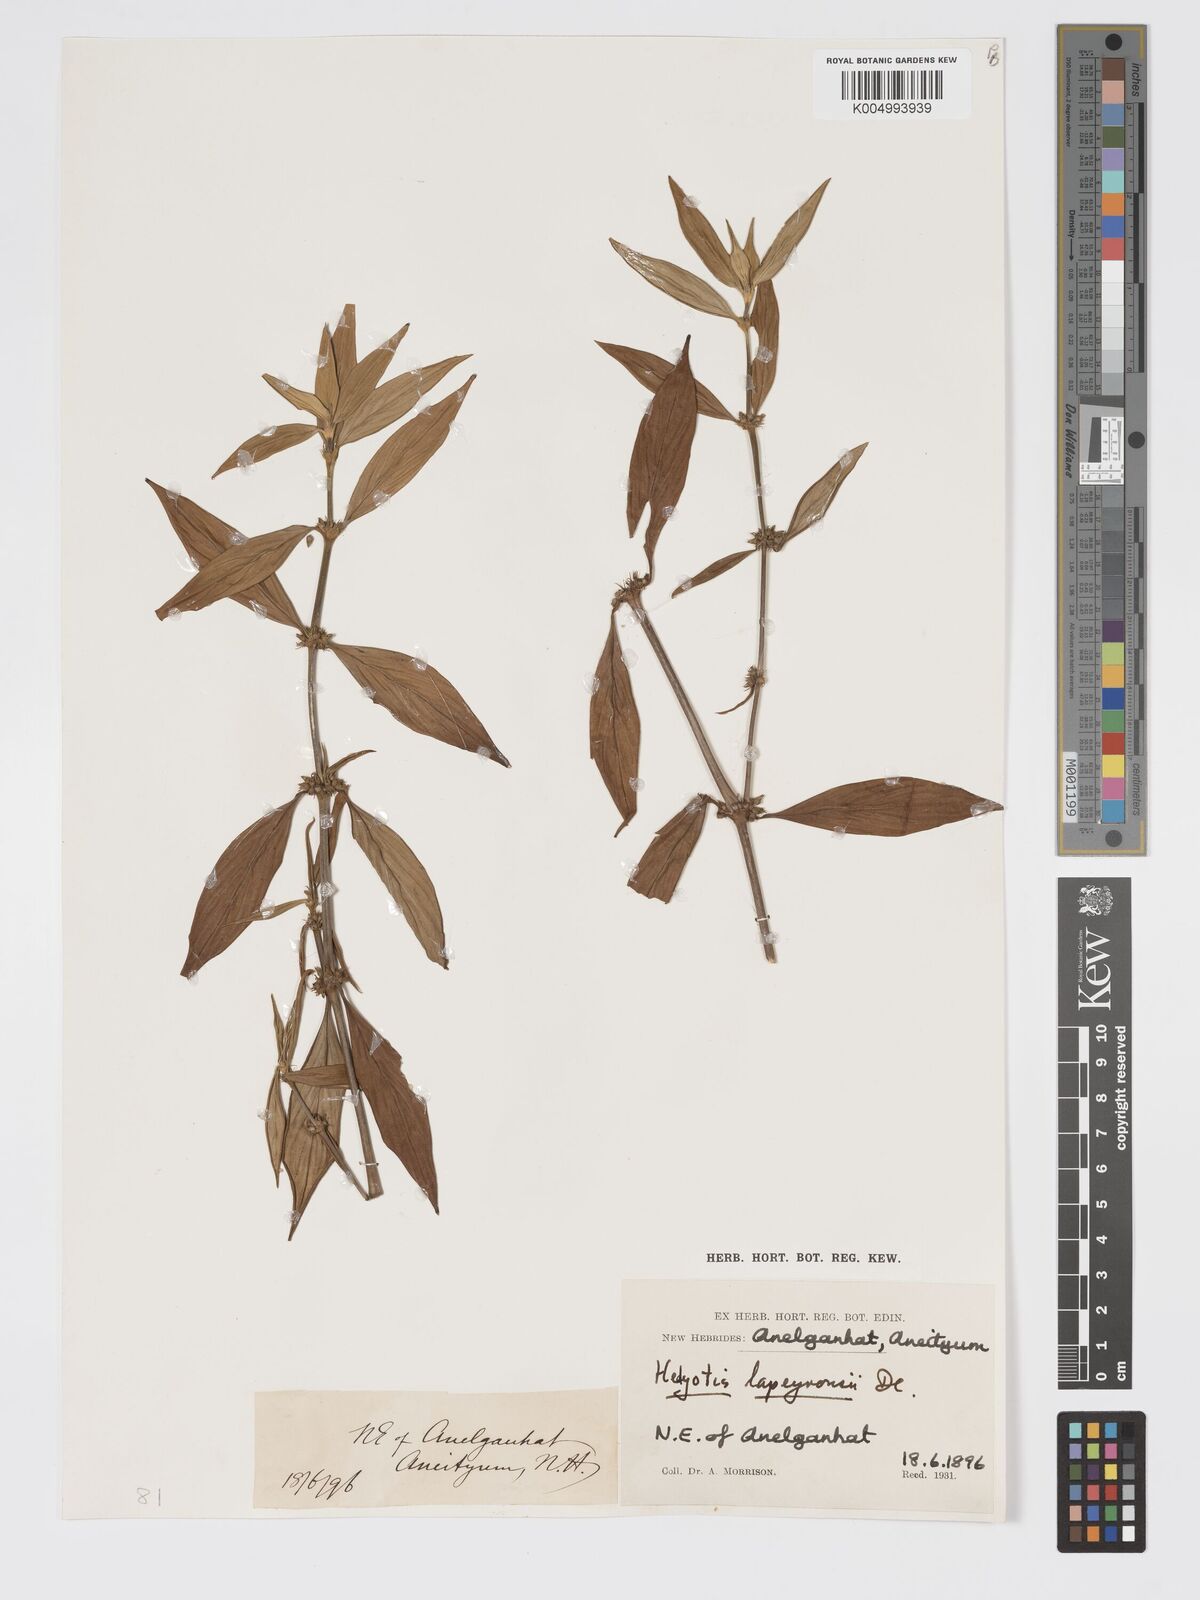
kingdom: Plantae
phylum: Tracheophyta
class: Magnoliopsida
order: Gentianales
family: Rubiaceae
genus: Exallage
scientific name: Exallage lapeyrousei
